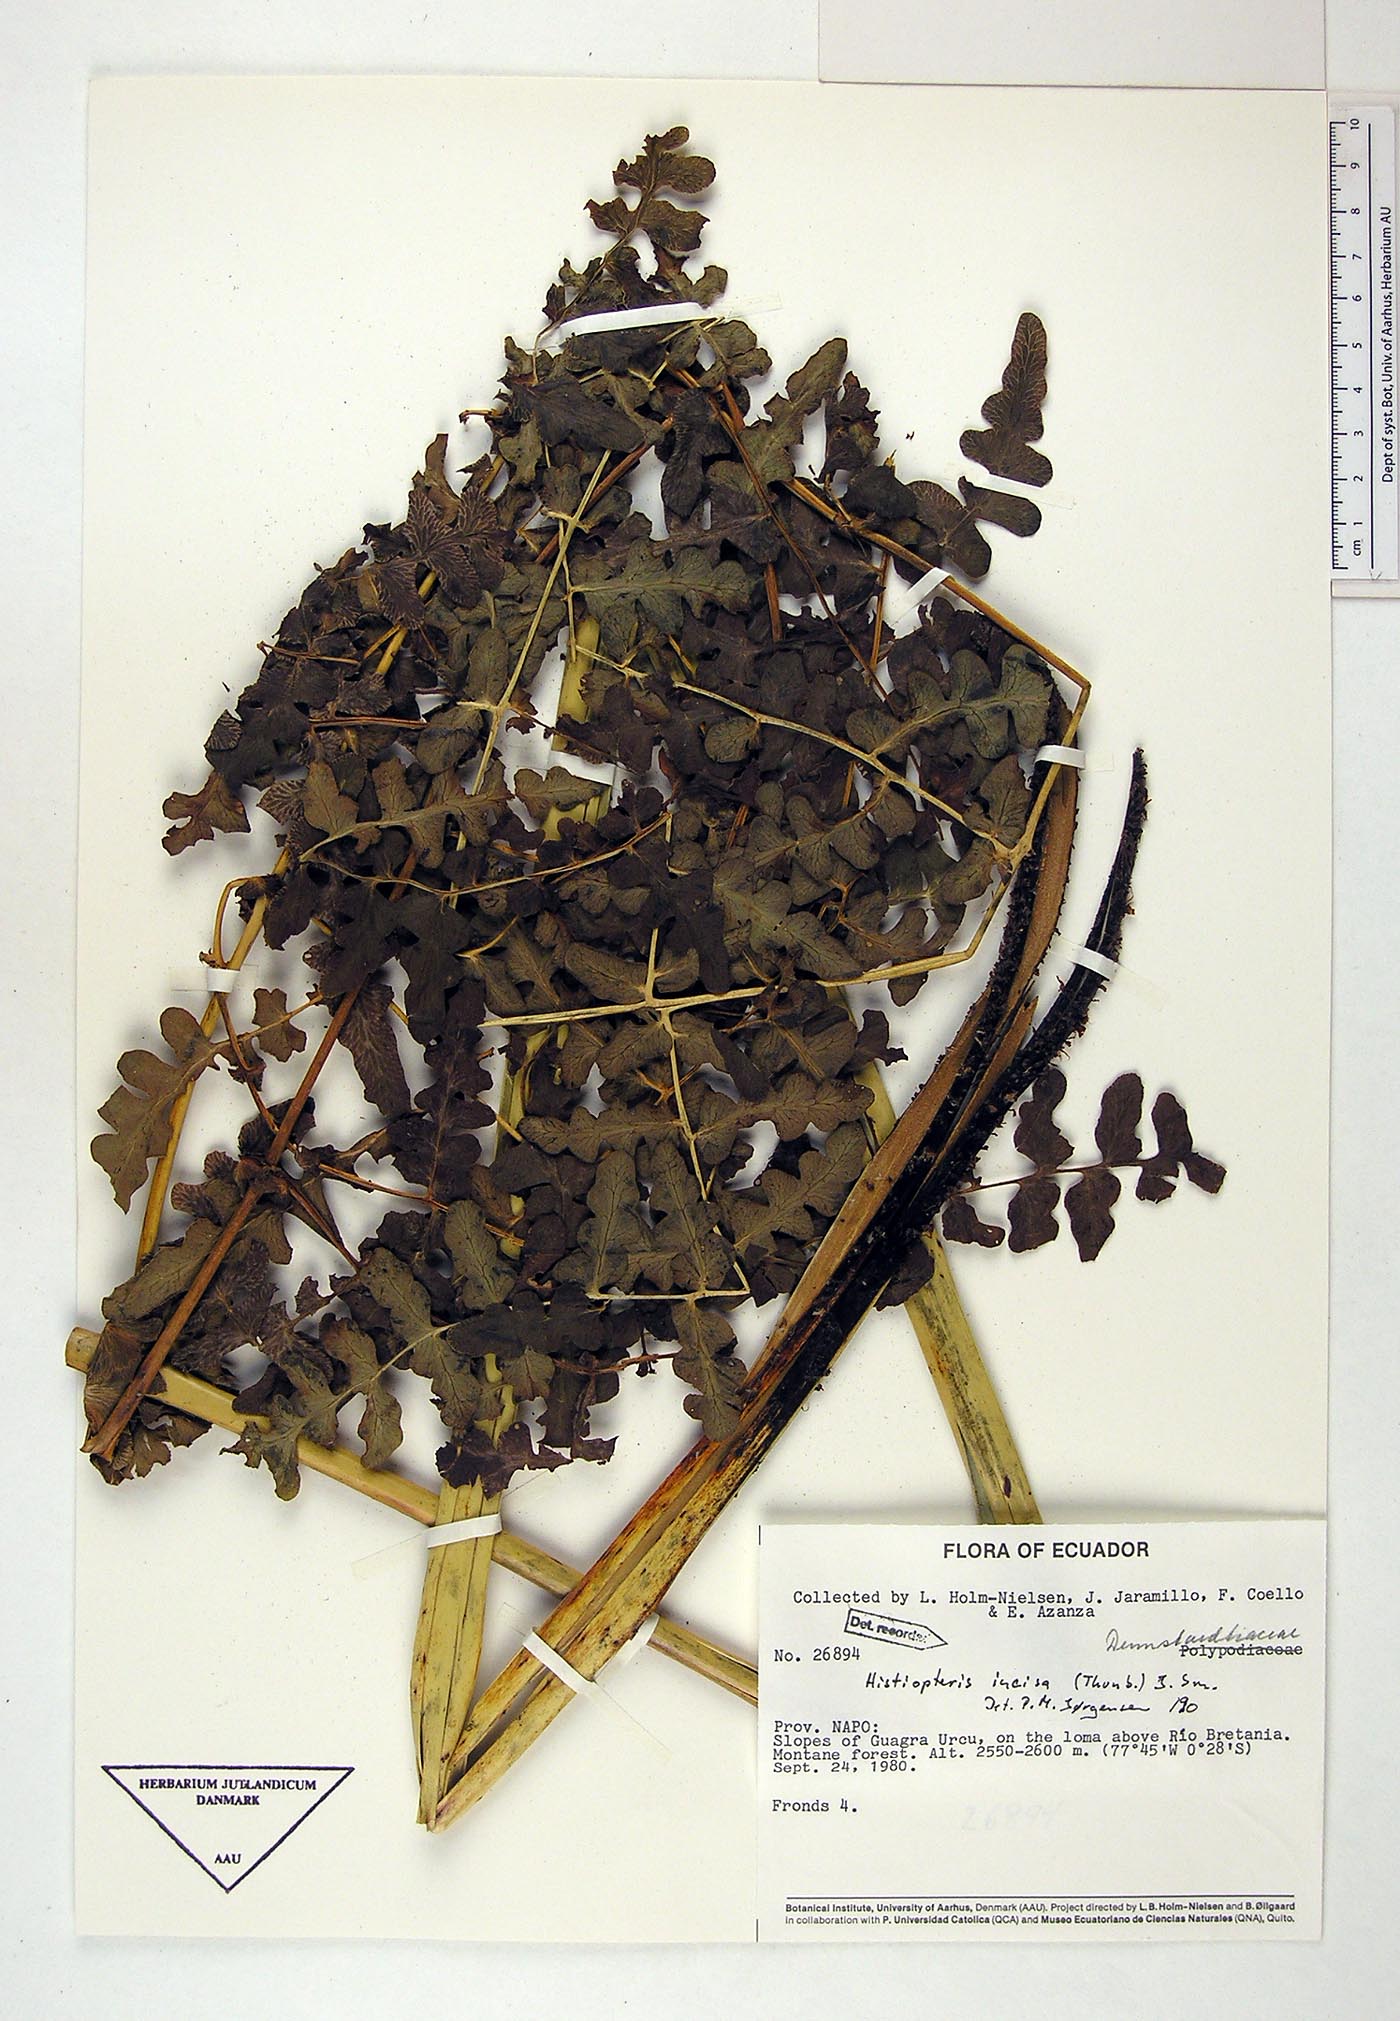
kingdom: Plantae
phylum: Tracheophyta
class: Polypodiopsida
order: Polypodiales
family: Dennstaedtiaceae
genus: Histiopteris
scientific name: Histiopteris incisa
